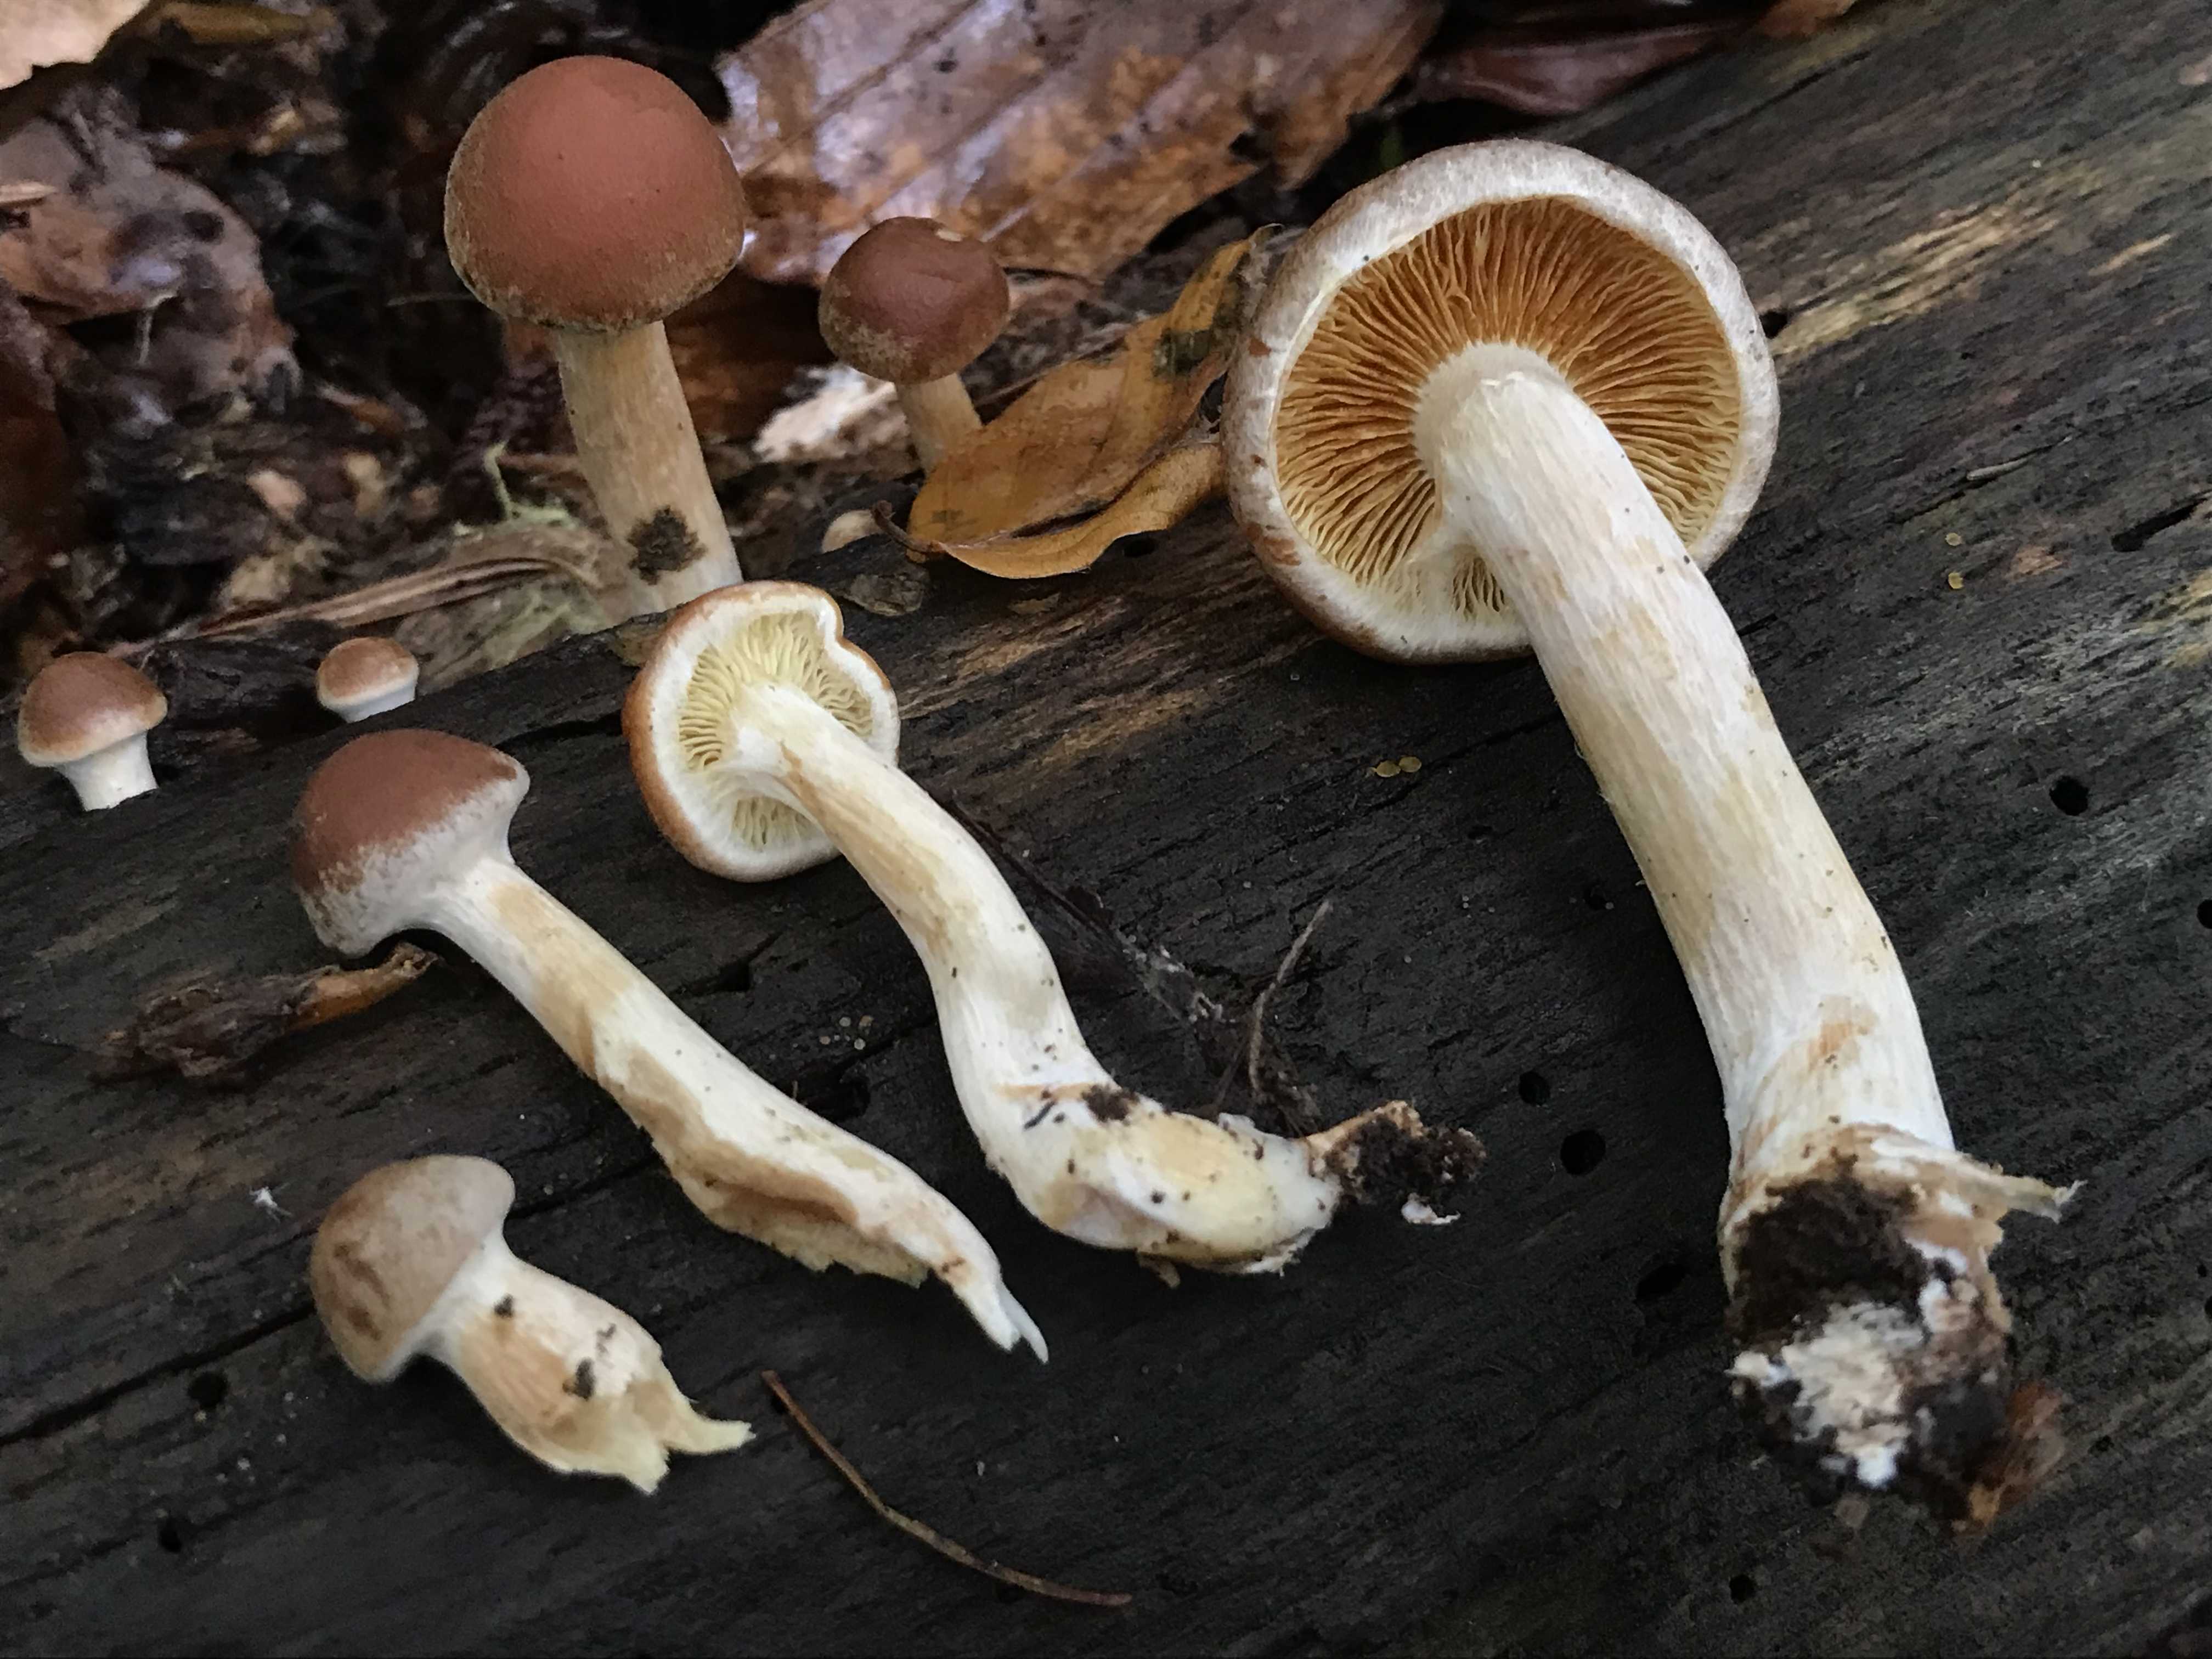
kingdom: Fungi
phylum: Basidiomycota
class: Agaricomycetes
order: Agaricales
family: Hymenogastraceae
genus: Gymnopilus
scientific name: Gymnopilus penetrans
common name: plettet flammehat
